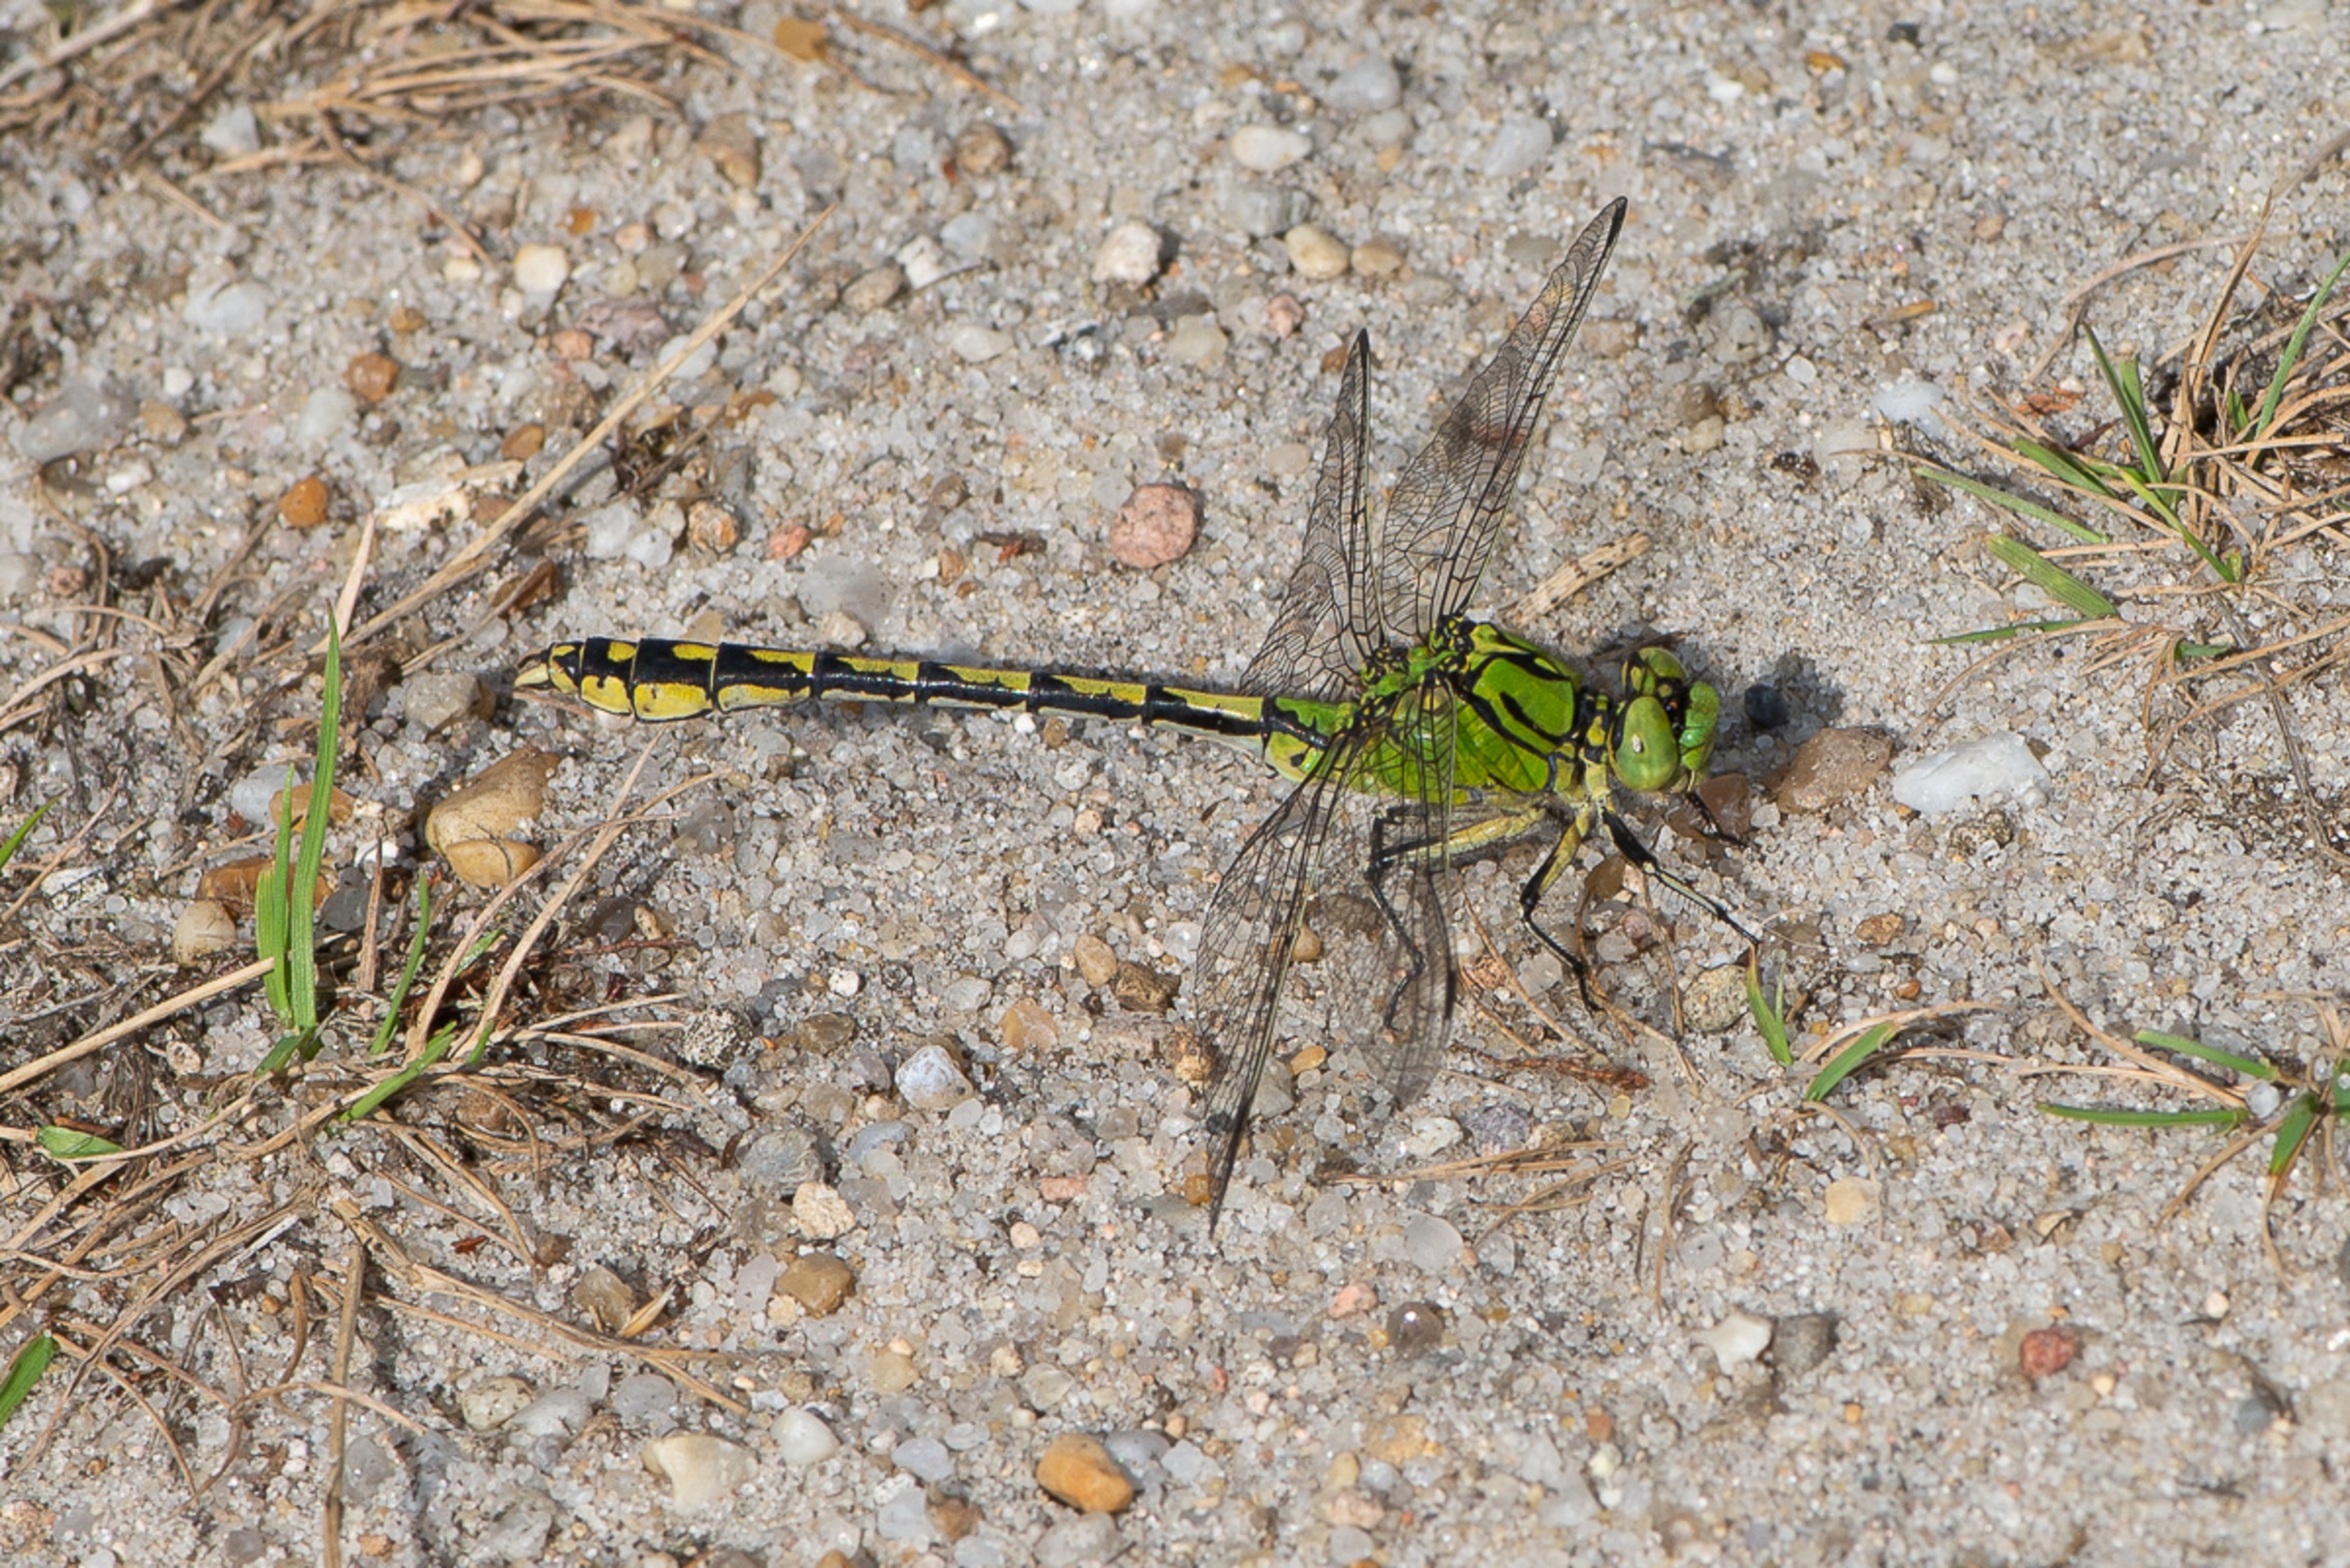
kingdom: Animalia
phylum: Arthropoda
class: Insecta
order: Odonata
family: Gomphidae
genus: Ophiogomphus
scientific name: Ophiogomphus cecilia
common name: Grøn kølleguldsmed
